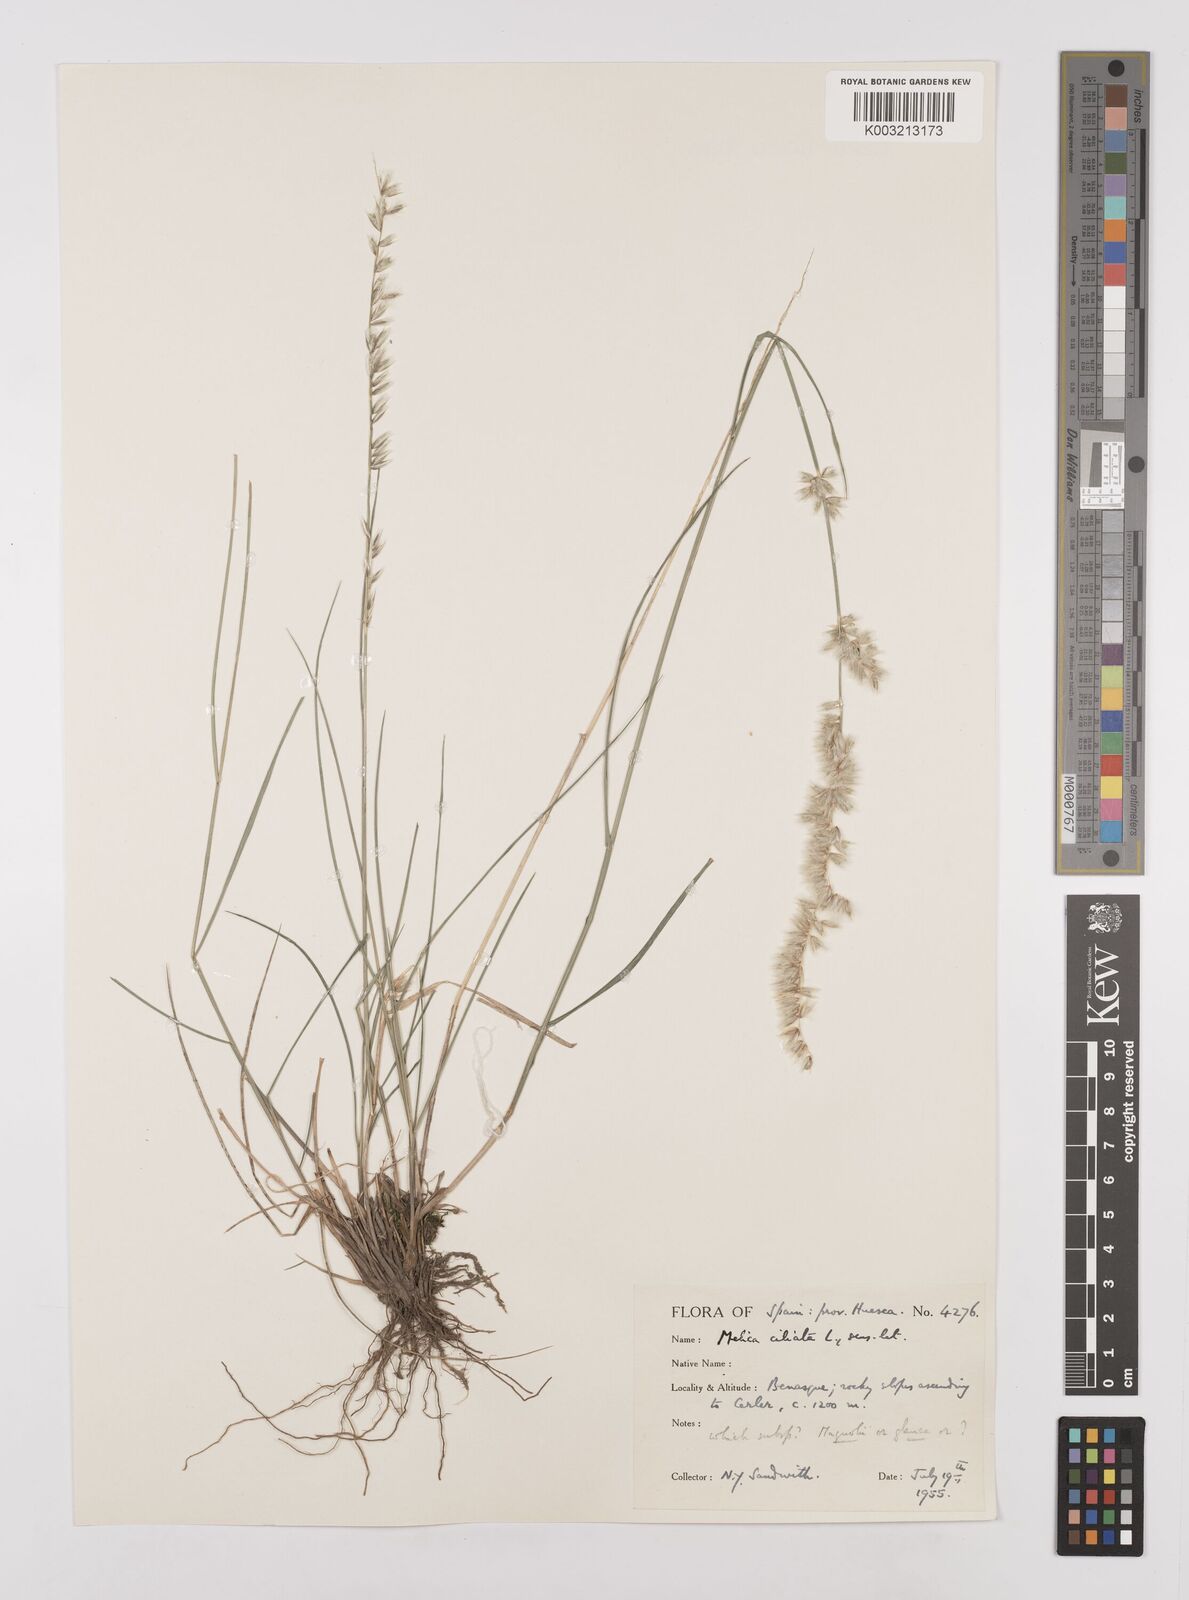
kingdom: Plantae
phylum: Tracheophyta
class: Liliopsida
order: Poales
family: Poaceae
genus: Melica
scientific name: Melica ciliata
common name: Hairy melicgrass
